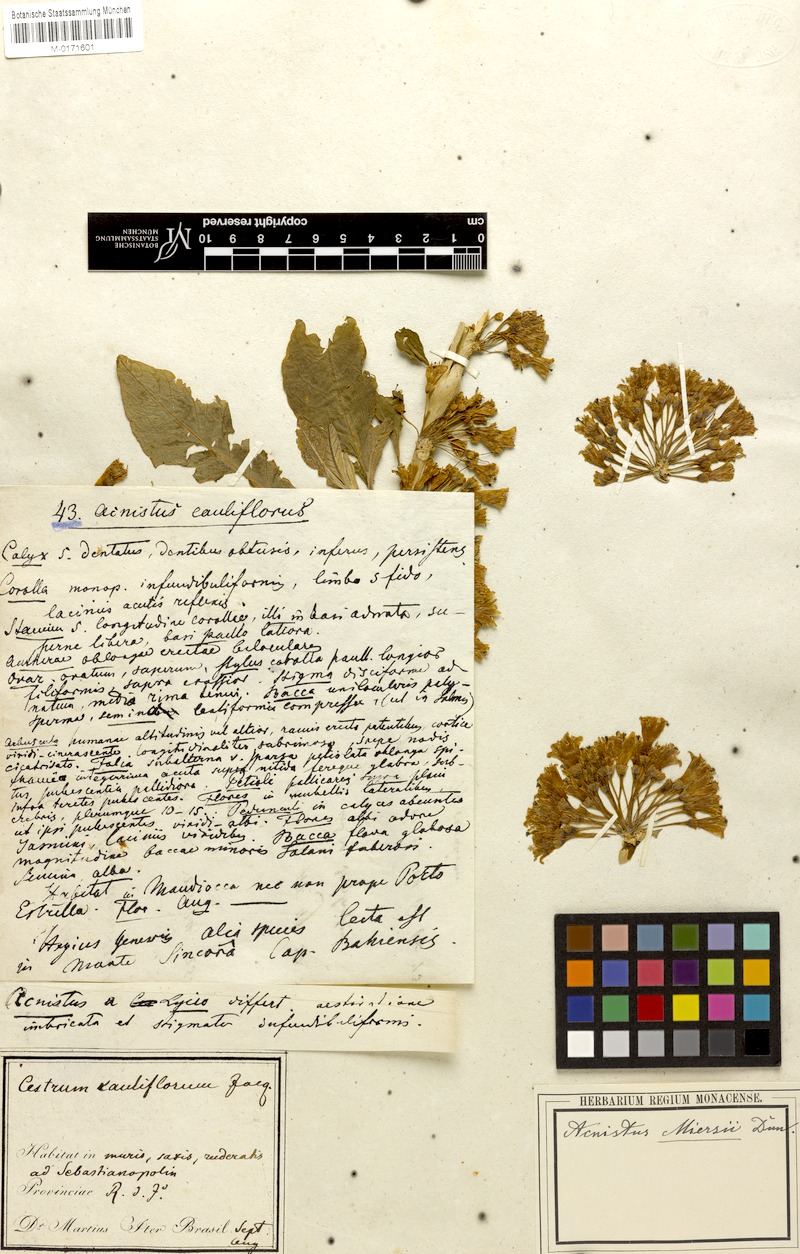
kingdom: Plantae
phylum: Tracheophyta
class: Magnoliopsida
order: Solanales
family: Solanaceae
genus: Iochroma
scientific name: Iochroma arborescens
